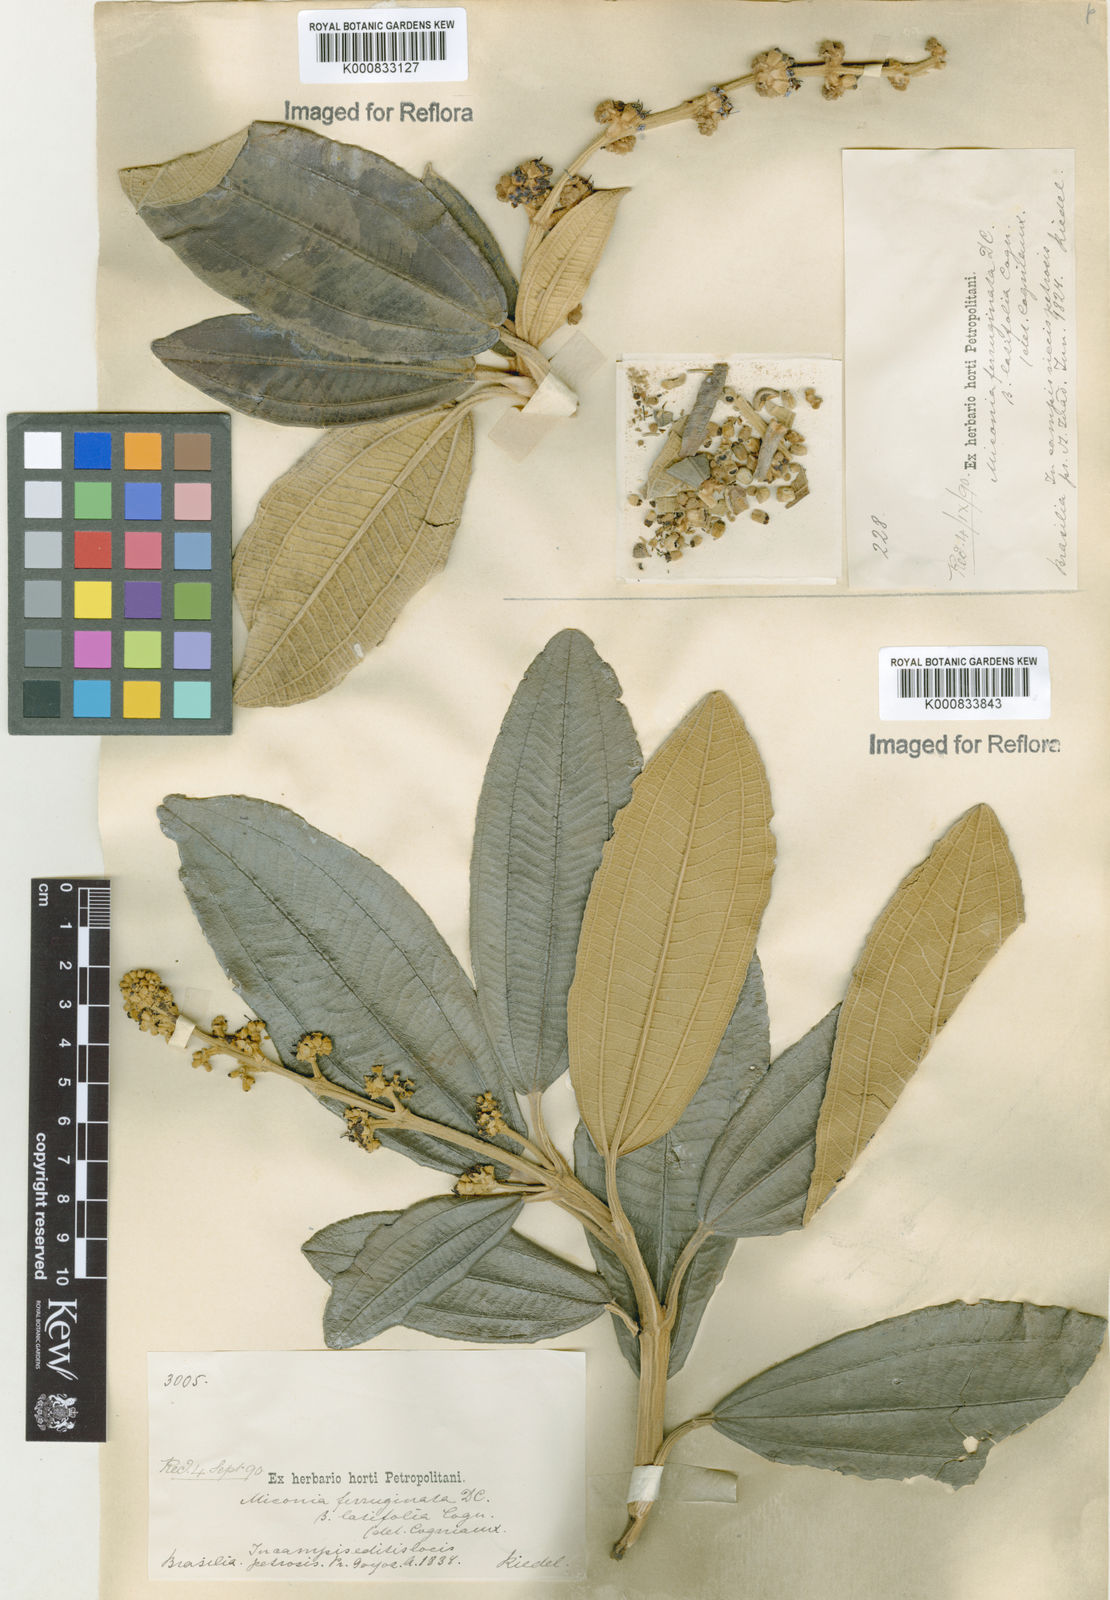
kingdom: Plantae
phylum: Tracheophyta
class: Magnoliopsida
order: Myrtales
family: Melastomataceae
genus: Miconia
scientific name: Miconia ferruginata
